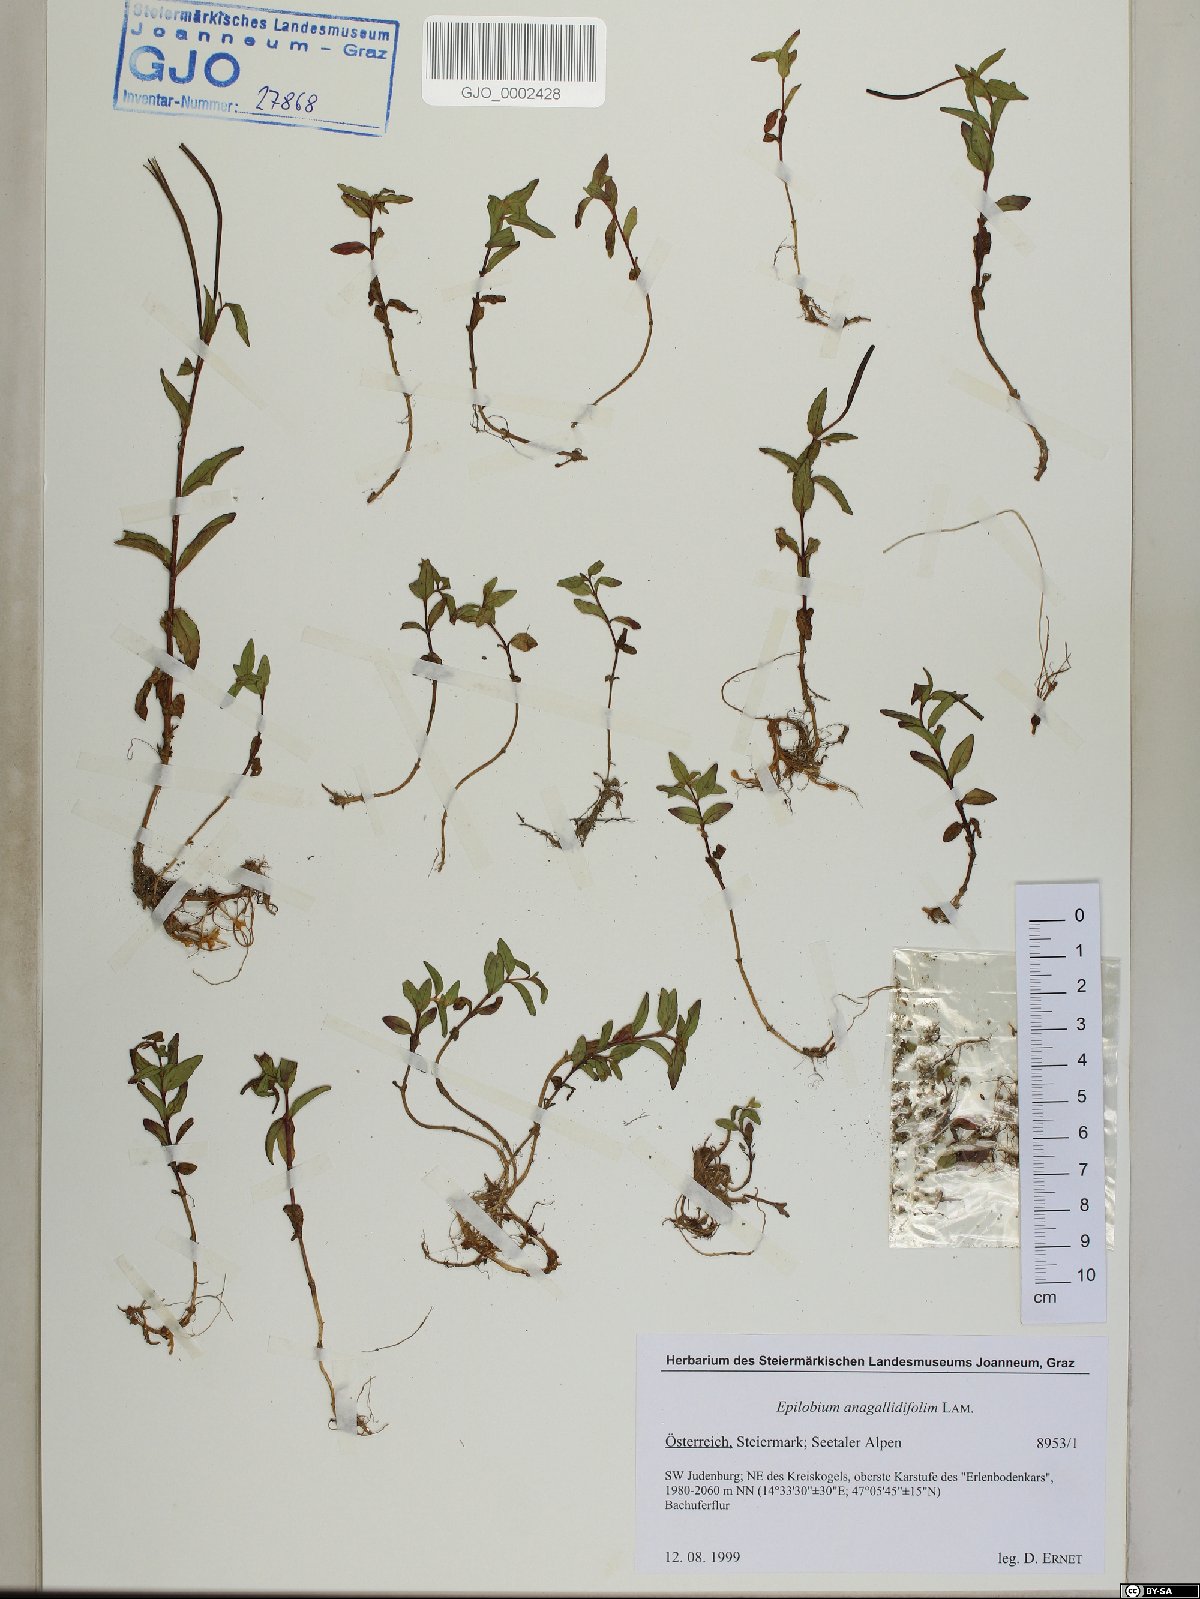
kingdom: Plantae
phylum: Tracheophyta
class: Magnoliopsida
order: Myrtales
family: Onagraceae
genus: Epilobium
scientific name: Epilobium anagallidifolium
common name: Alpine willowherb
